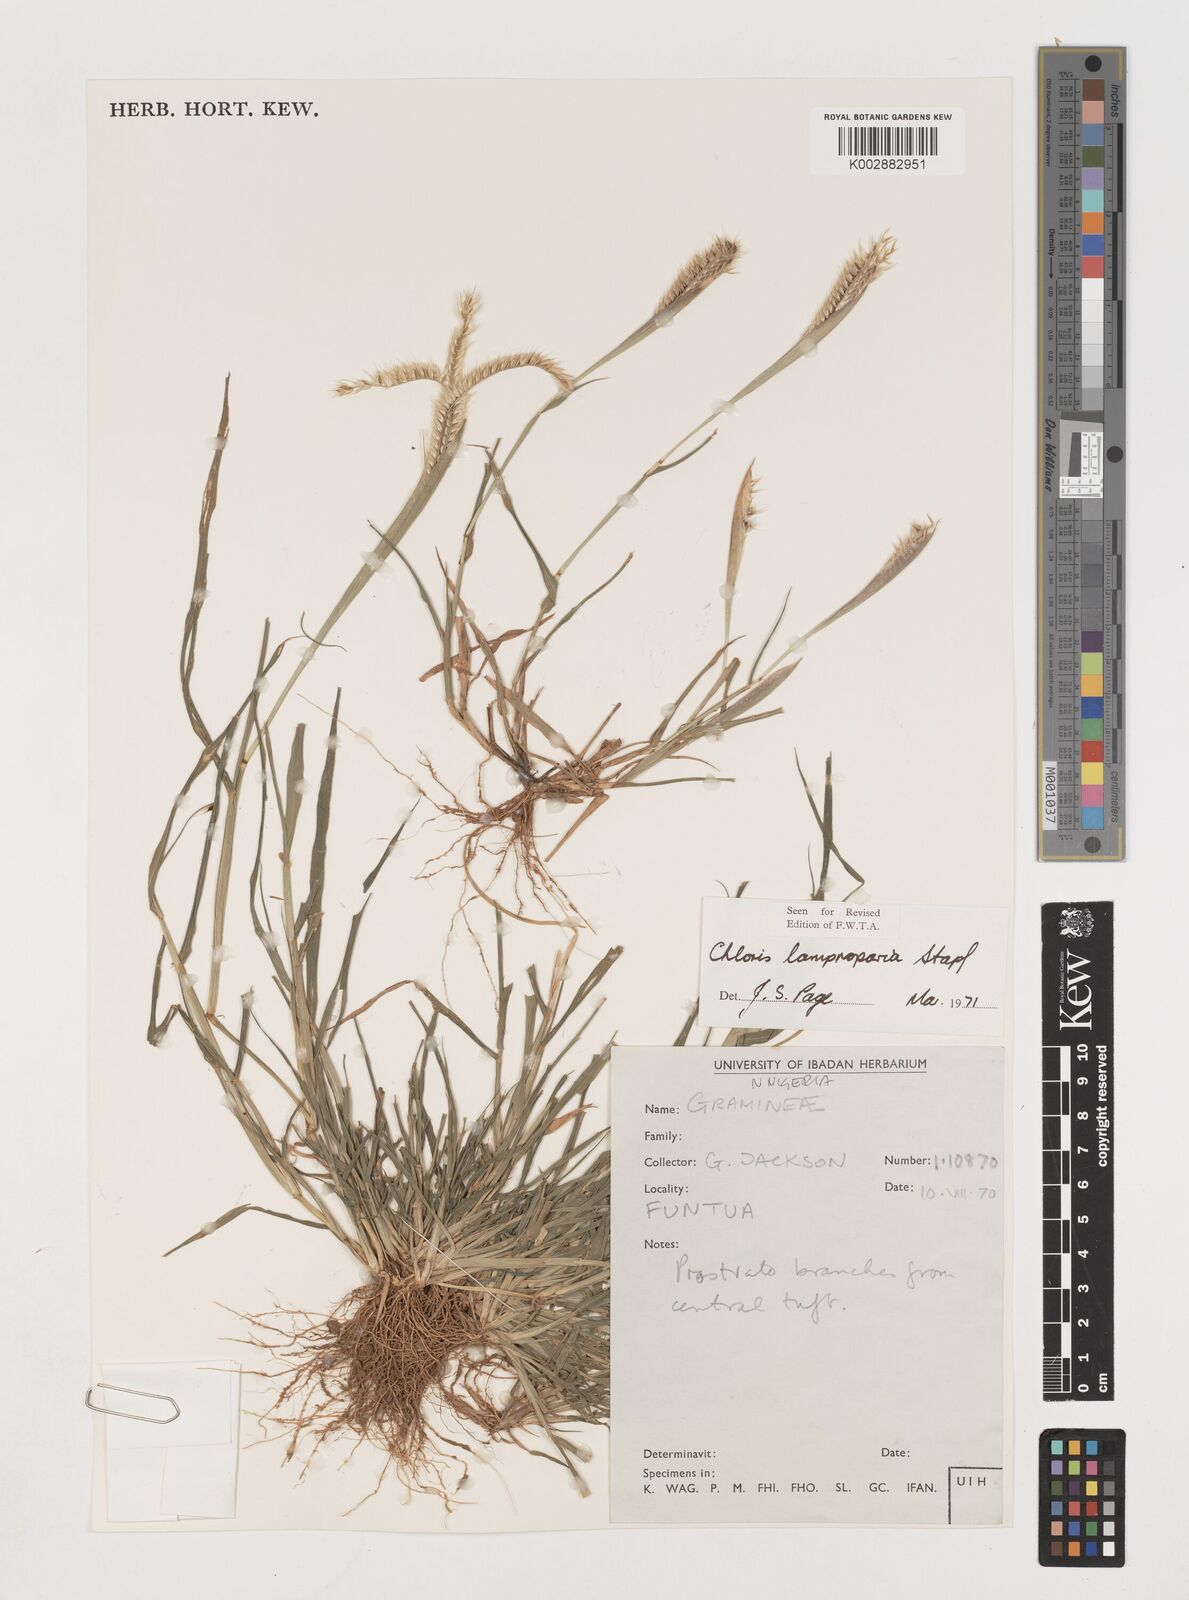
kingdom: Plantae
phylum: Tracheophyta
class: Liliopsida
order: Poales
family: Poaceae
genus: Stapfochloa
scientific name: Stapfochloa lamproparia
